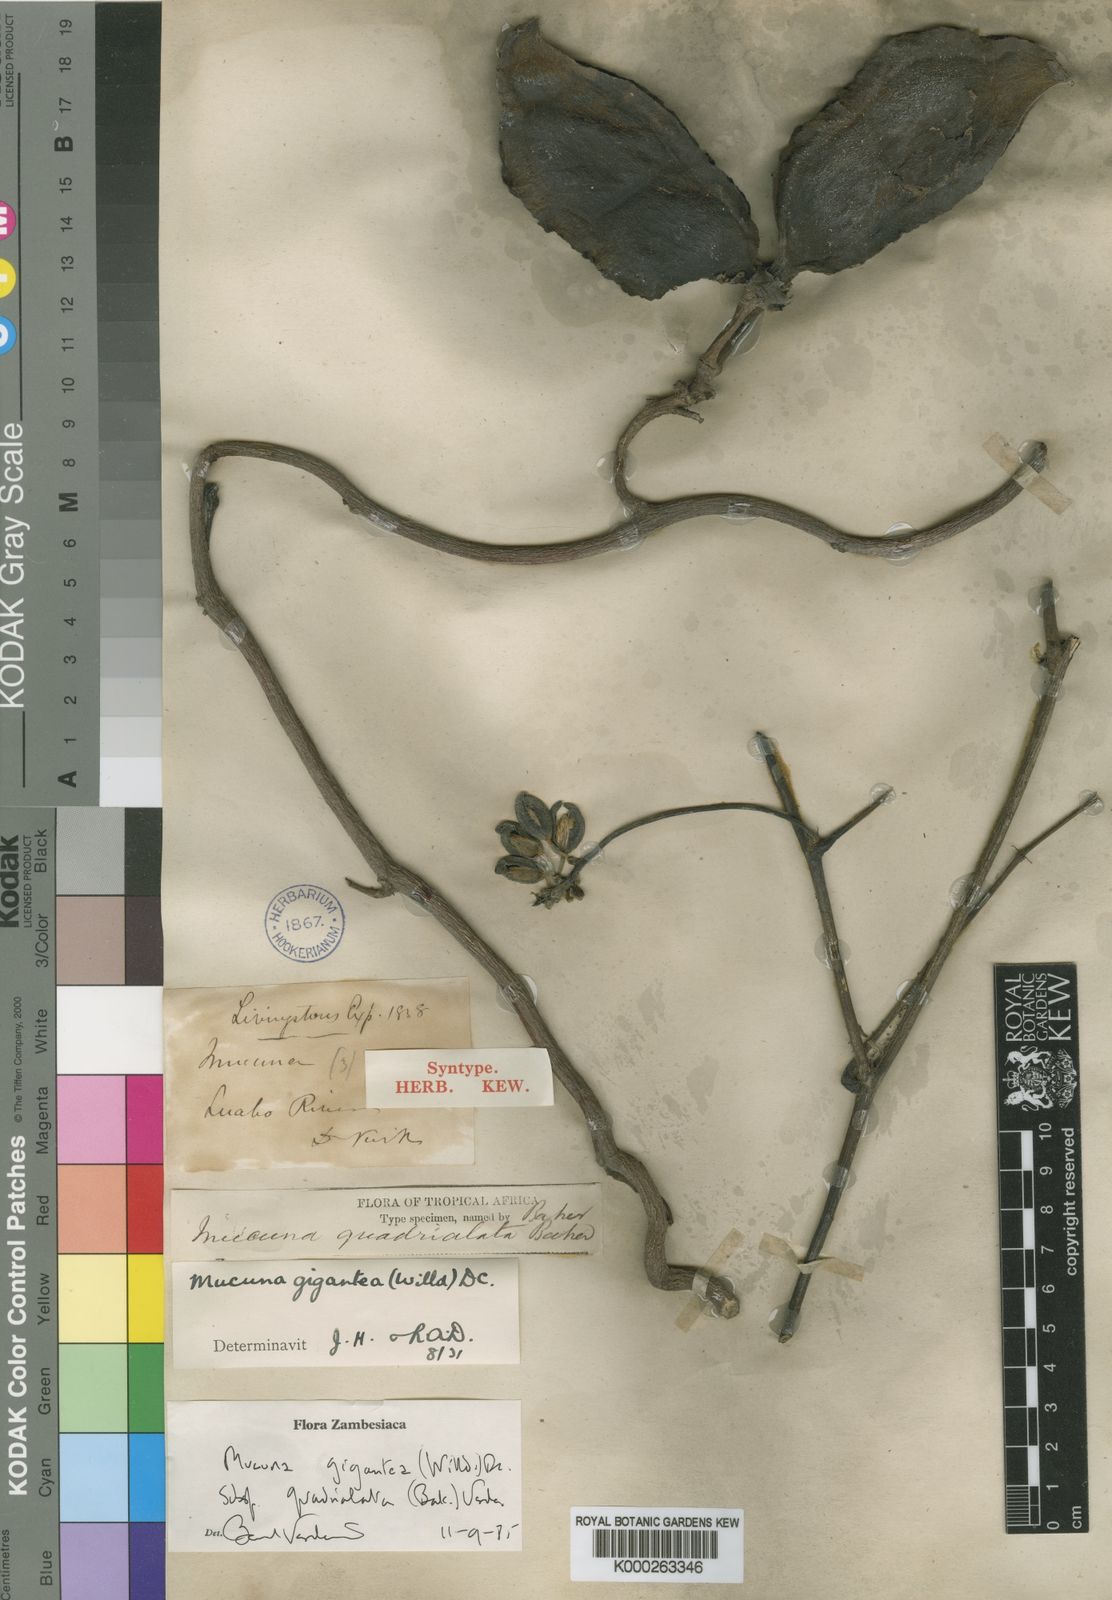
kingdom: Plantae
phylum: Tracheophyta
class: Magnoliopsida
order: Fabales
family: Fabaceae
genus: Mucuna
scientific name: Mucuna gigantea
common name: Black-bean
